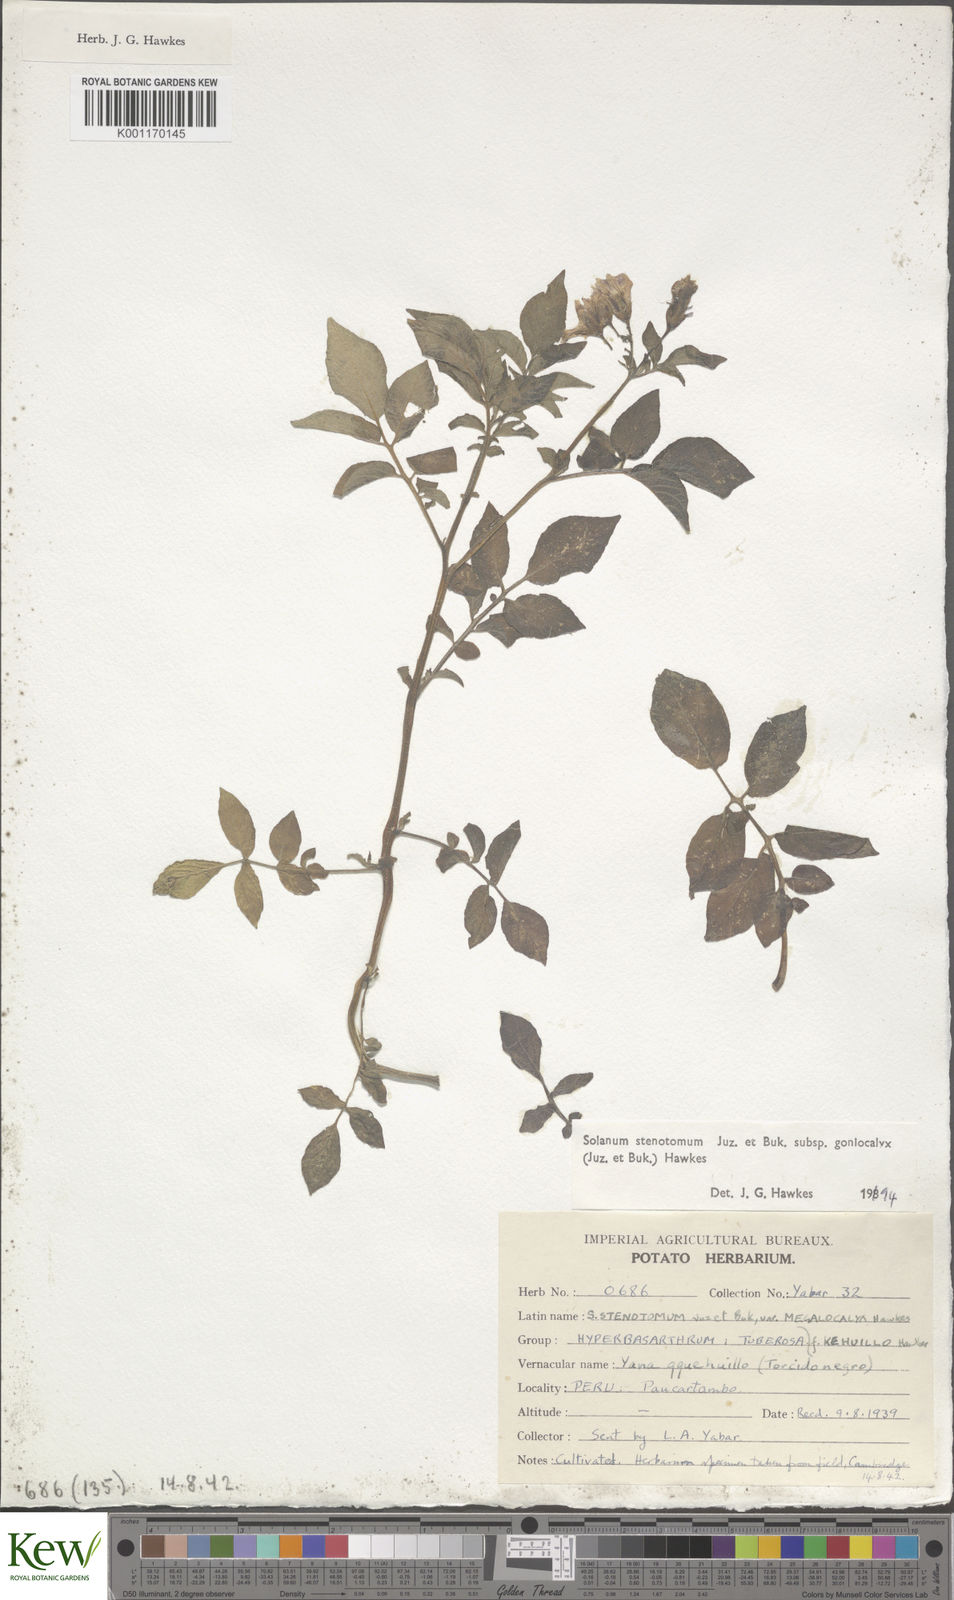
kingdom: Plantae
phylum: Tracheophyta
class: Magnoliopsida
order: Solanales
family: Solanaceae
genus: Solanum
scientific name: Solanum tuberosum
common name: Potato
